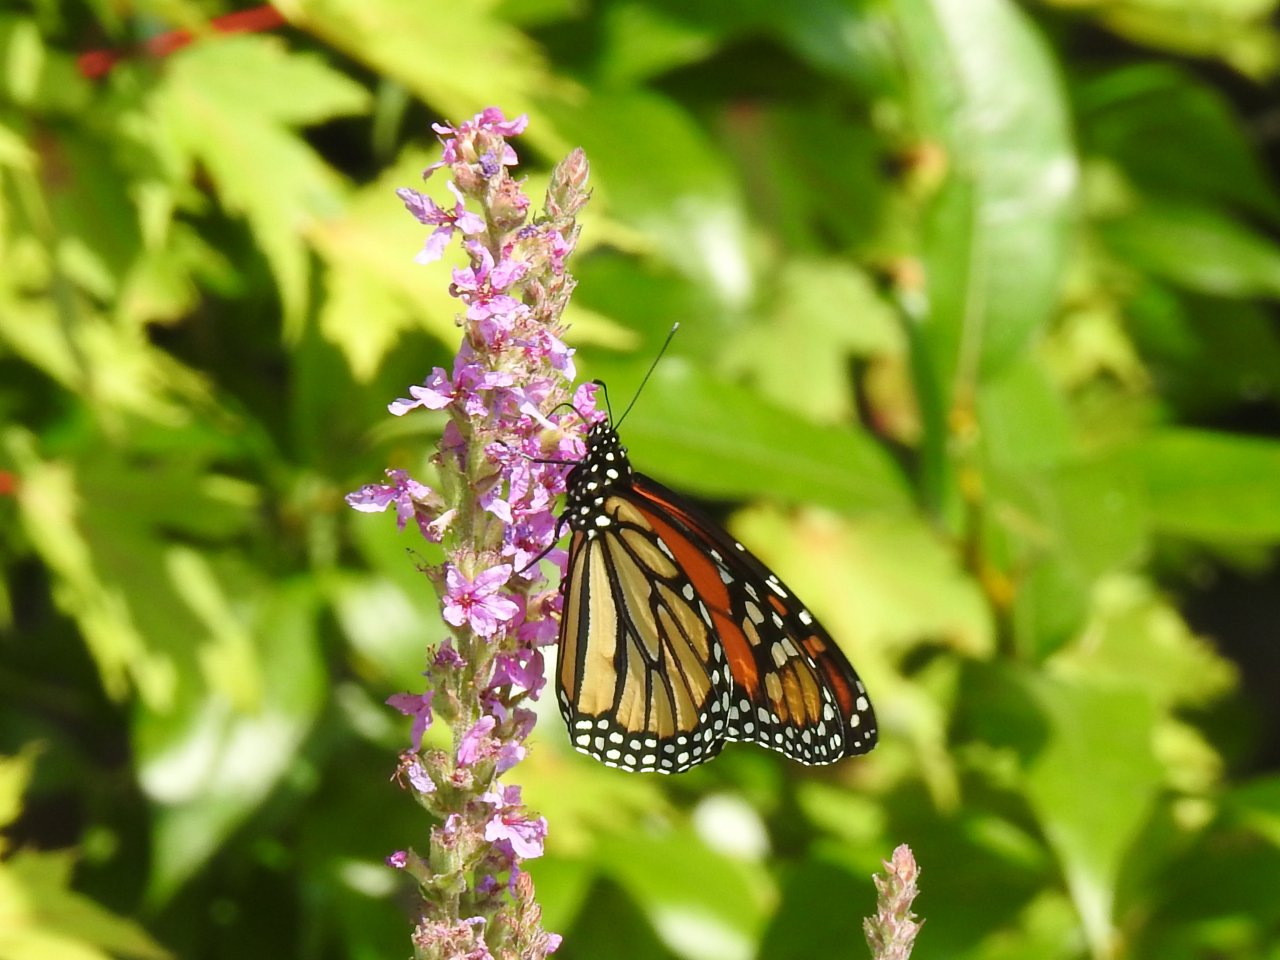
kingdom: Animalia
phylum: Arthropoda
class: Insecta
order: Lepidoptera
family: Nymphalidae
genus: Danaus
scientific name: Danaus plexippus
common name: Monarch
